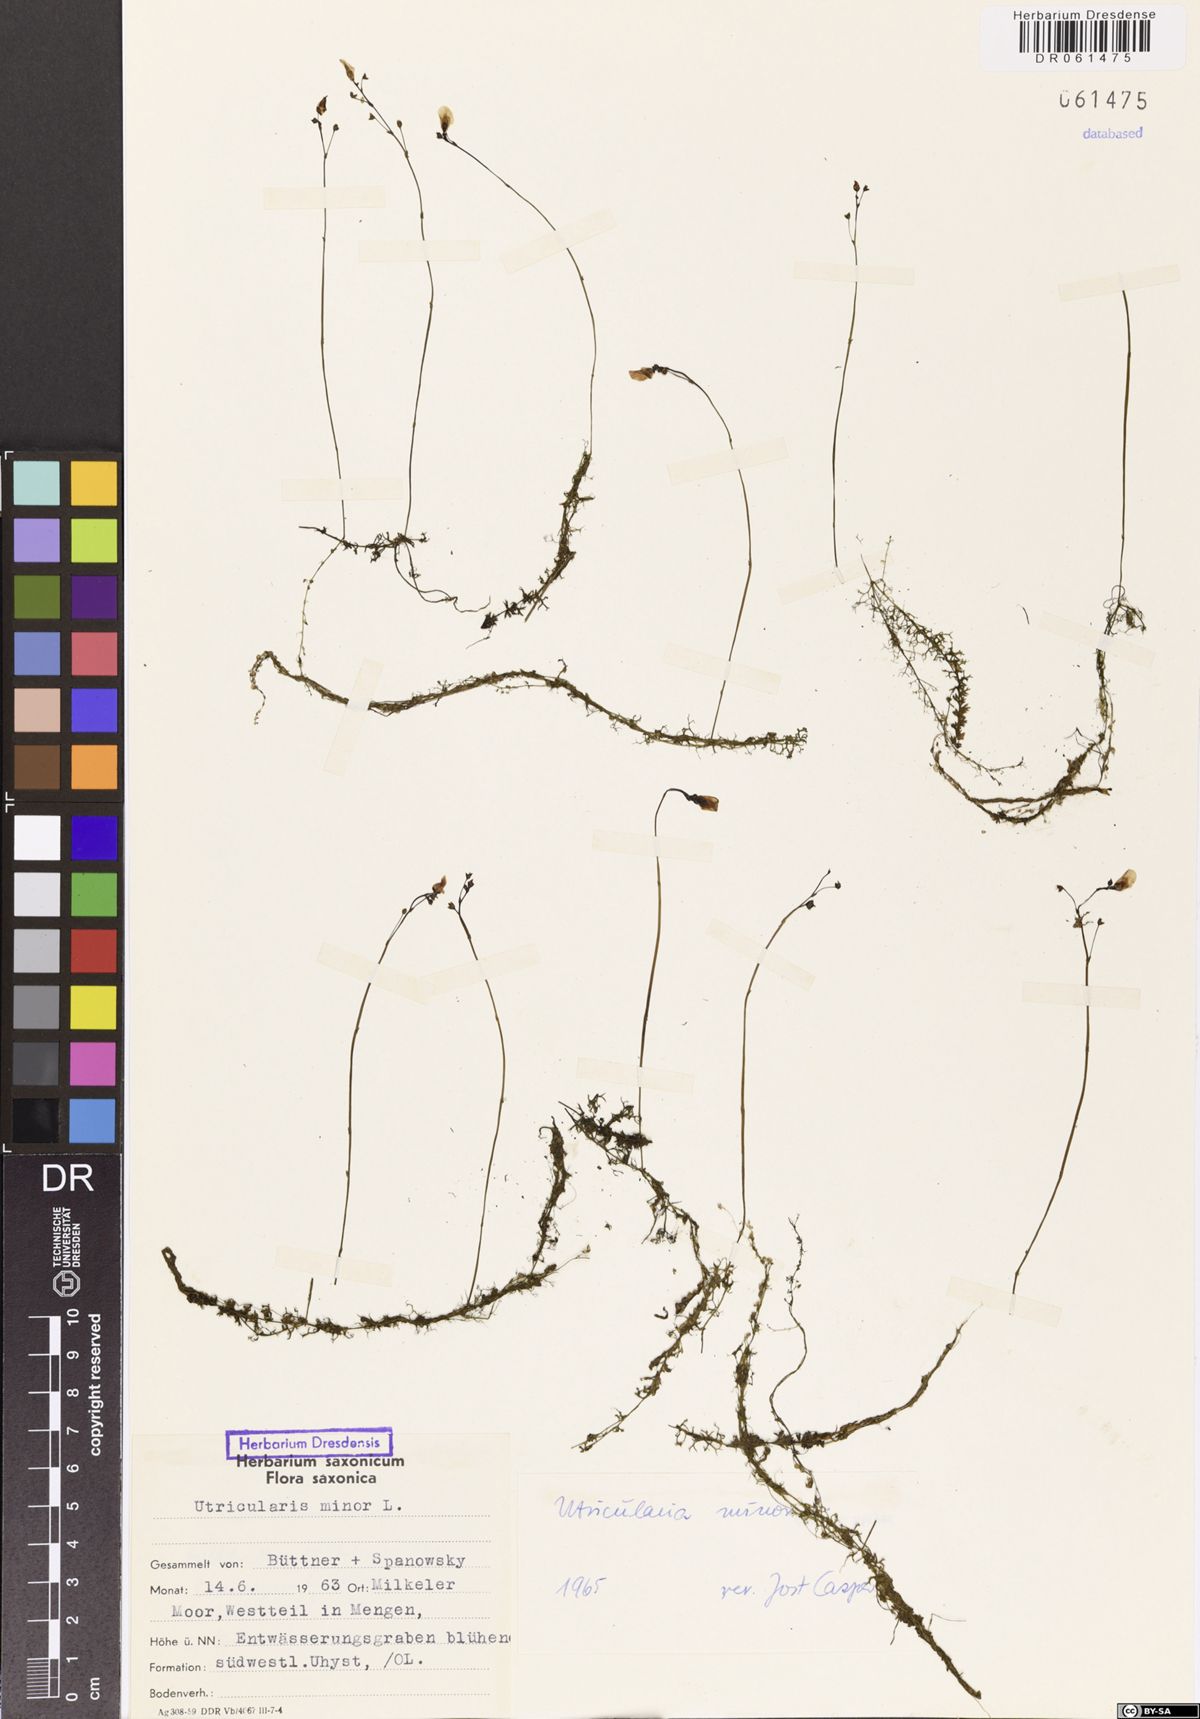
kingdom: Plantae
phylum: Tracheophyta
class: Magnoliopsida
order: Lamiales
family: Lentibulariaceae
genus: Utricularia
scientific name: Utricularia minor
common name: Lesser bladderwort
